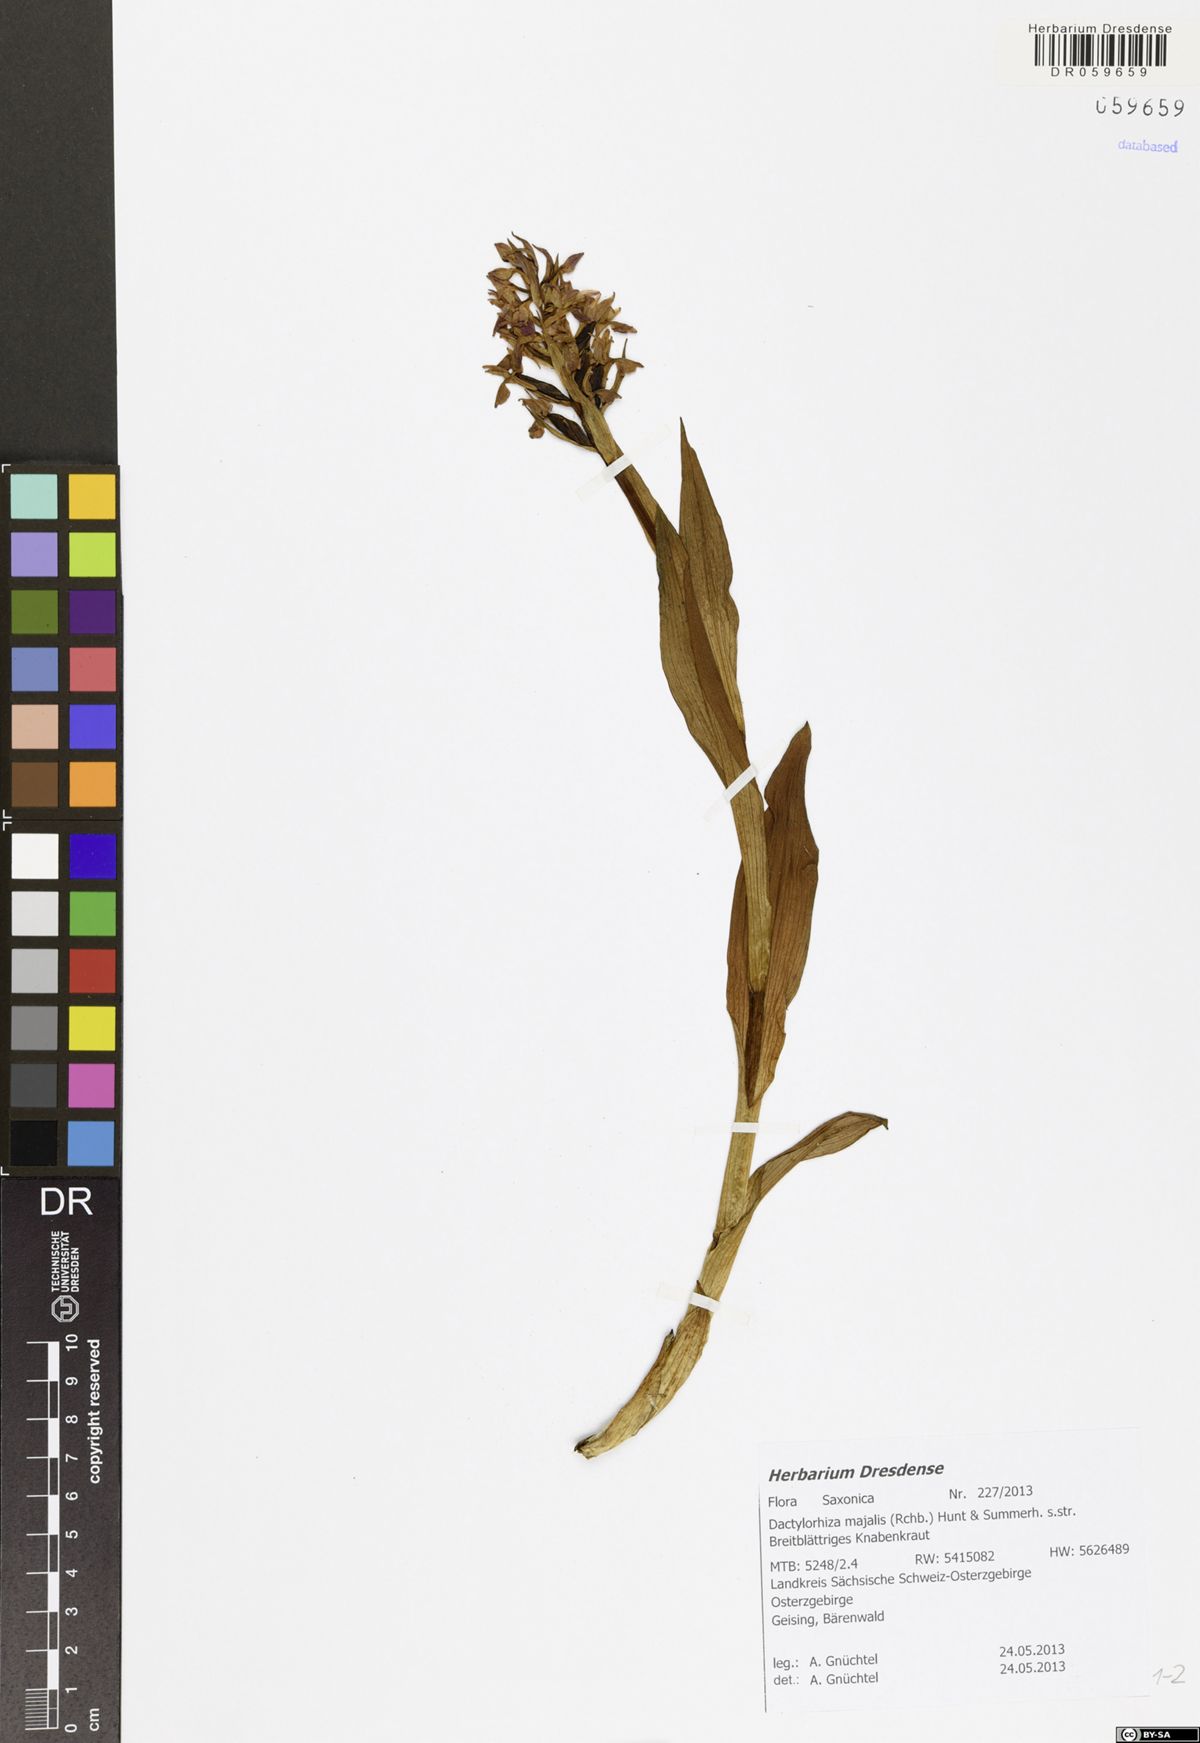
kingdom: Plantae
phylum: Tracheophyta
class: Liliopsida
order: Asparagales
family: Orchidaceae
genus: Dactylorhiza
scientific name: Dactylorhiza majalis
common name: Marsh orchid
